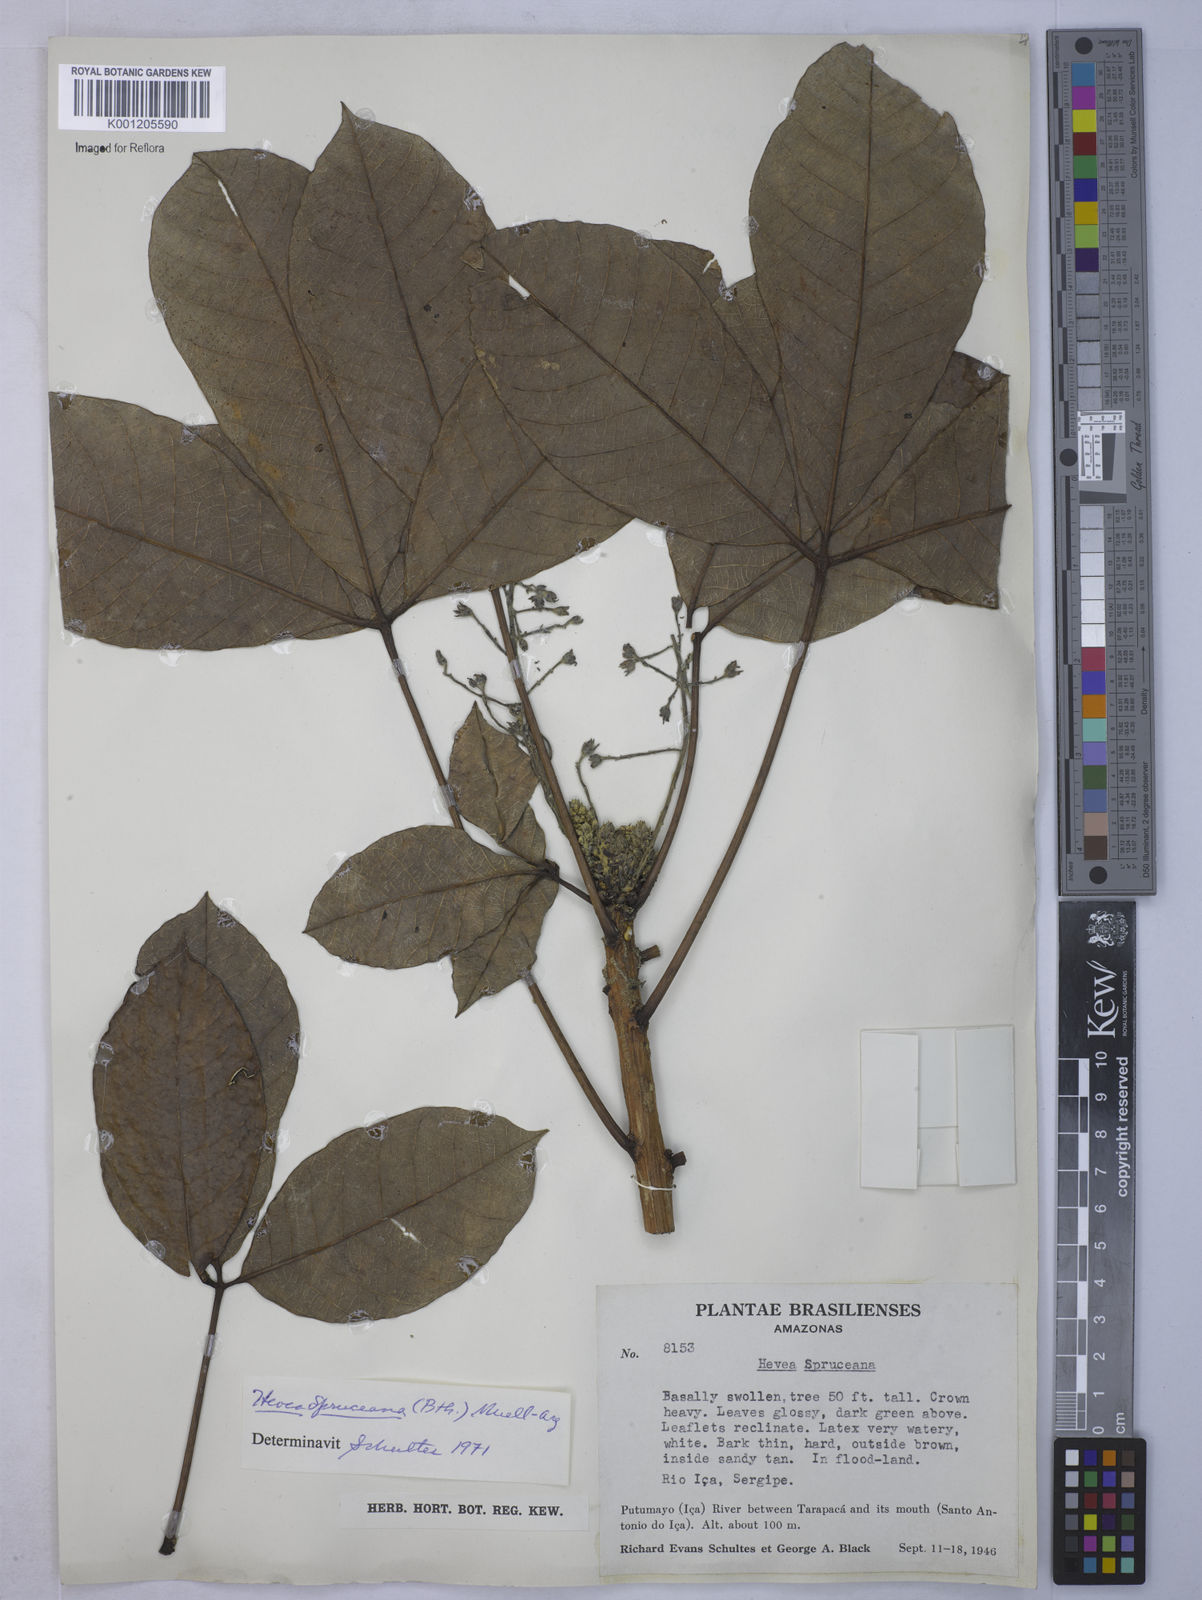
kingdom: Plantae
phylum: Tracheophyta
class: Magnoliopsida
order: Malpighiales
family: Euphorbiaceae
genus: Hevea
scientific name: Hevea
